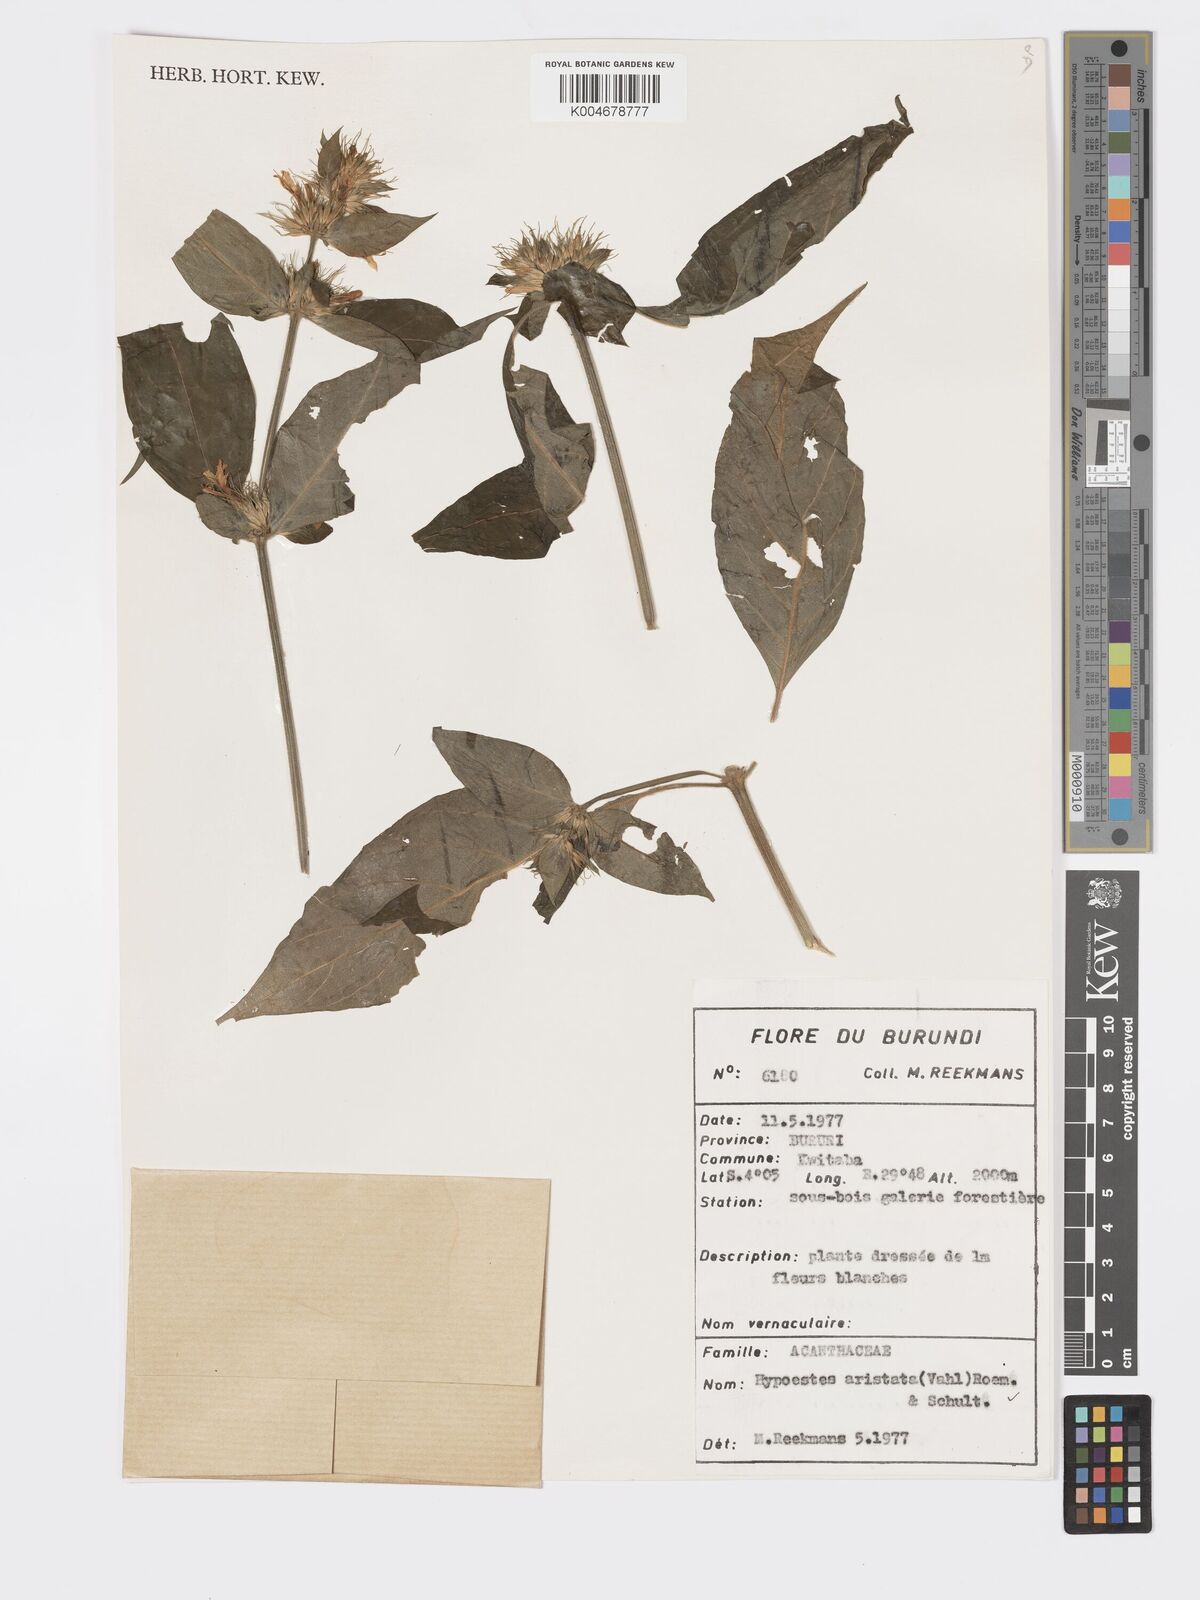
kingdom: Plantae
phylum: Tracheophyta
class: Magnoliopsida
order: Lamiales
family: Acanthaceae
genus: Hypoestes
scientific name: Hypoestes aristata
